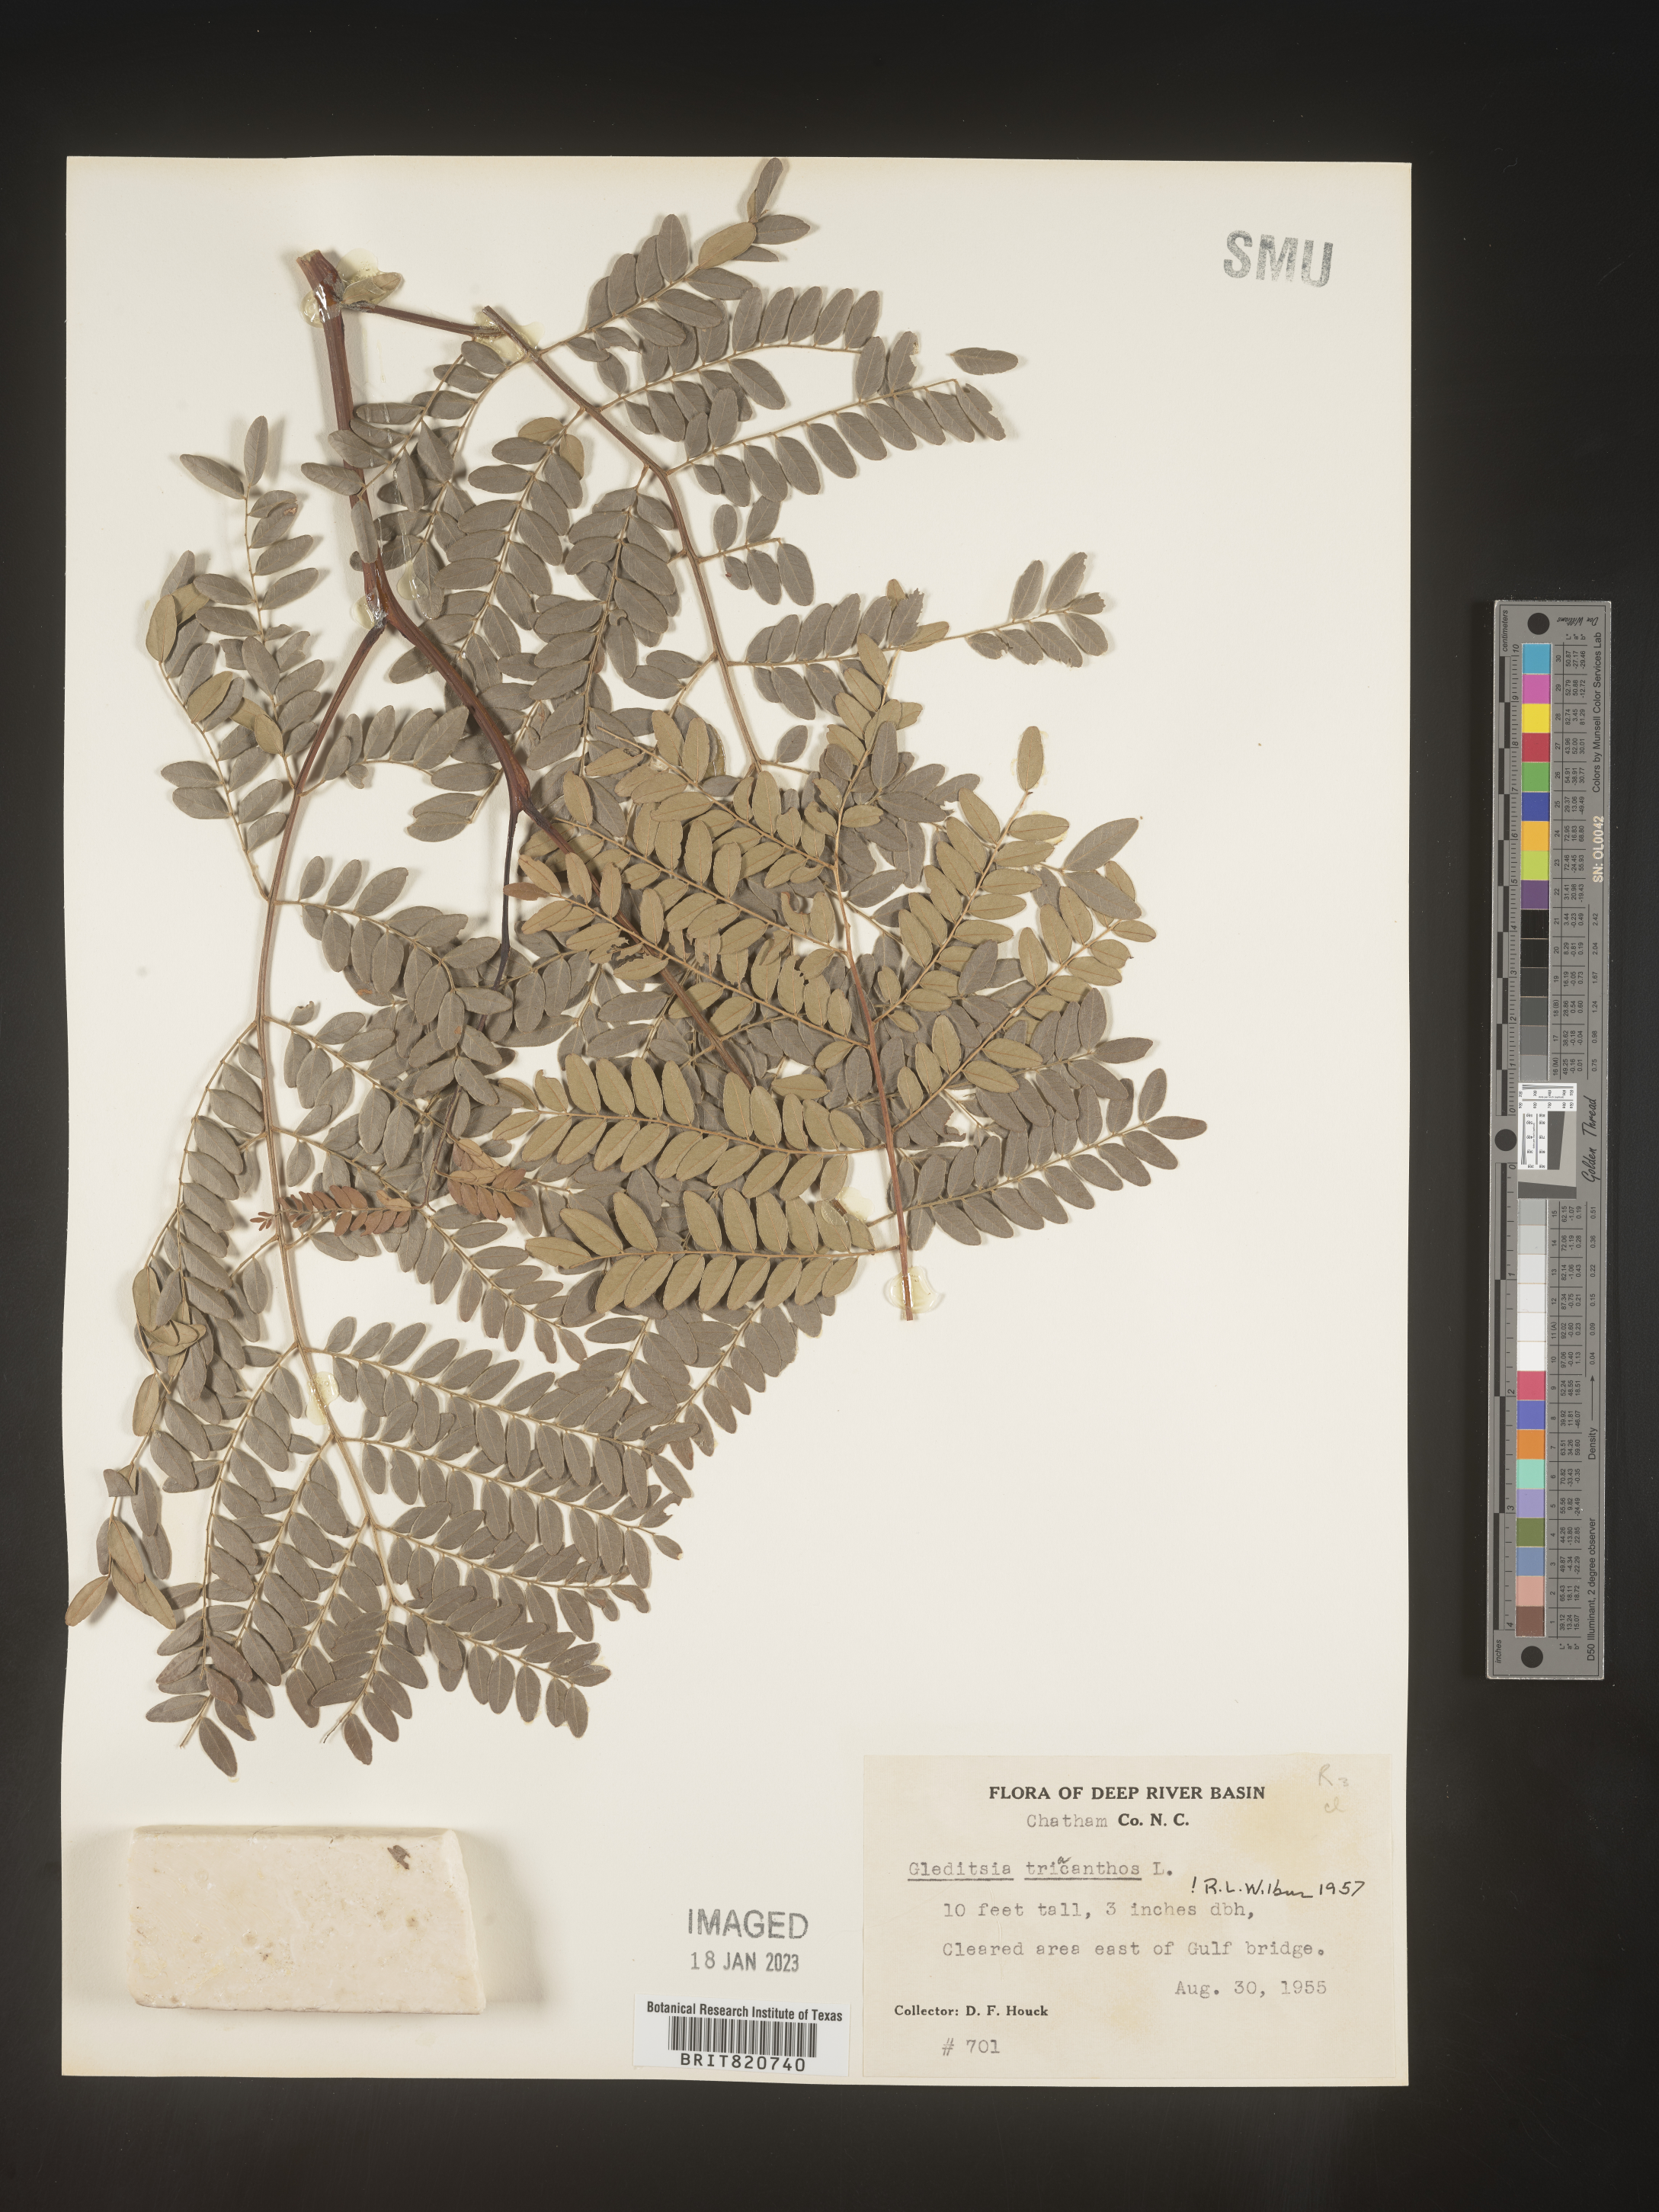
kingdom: Plantae
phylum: Tracheophyta
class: Magnoliopsida
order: Fabales
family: Fabaceae
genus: Gleditsia
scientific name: Gleditsia triacanthos
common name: Common honeylocust
